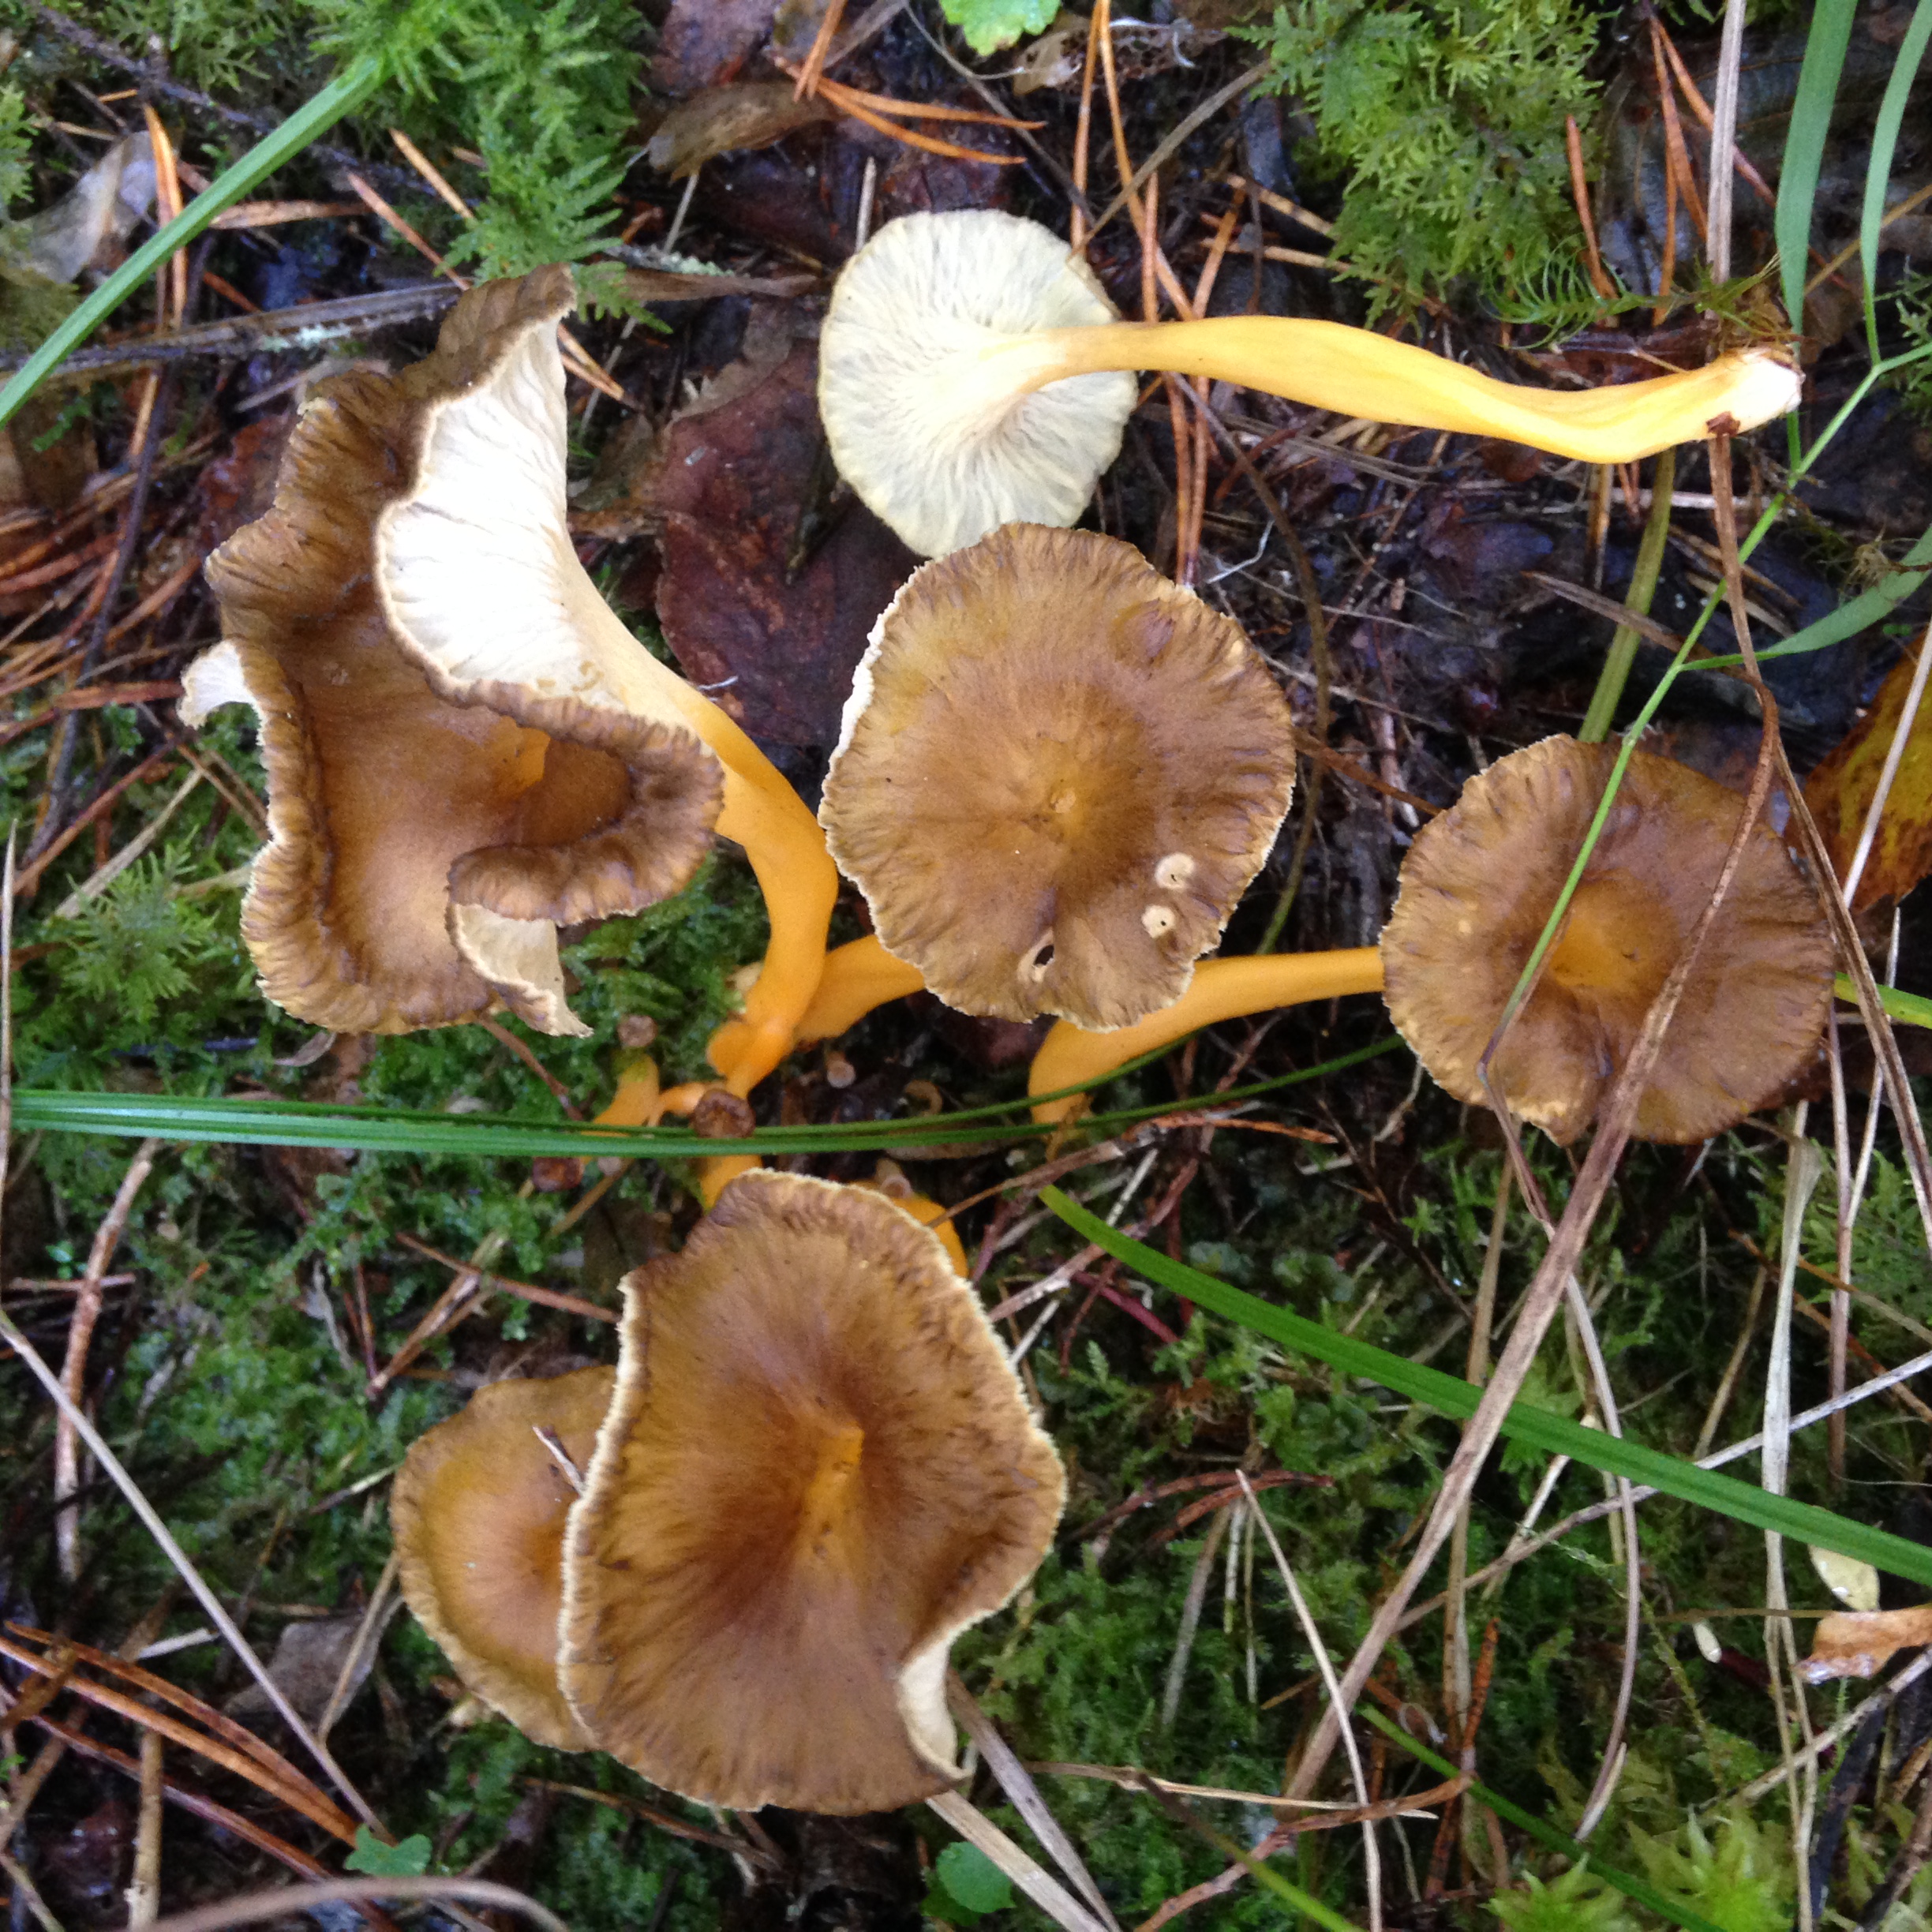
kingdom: Fungi
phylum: Basidiomycota
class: Agaricomycetes
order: Cantharellales
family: Hydnaceae
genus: Craterellus
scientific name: Craterellus lutescens
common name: Golden chanterelle
